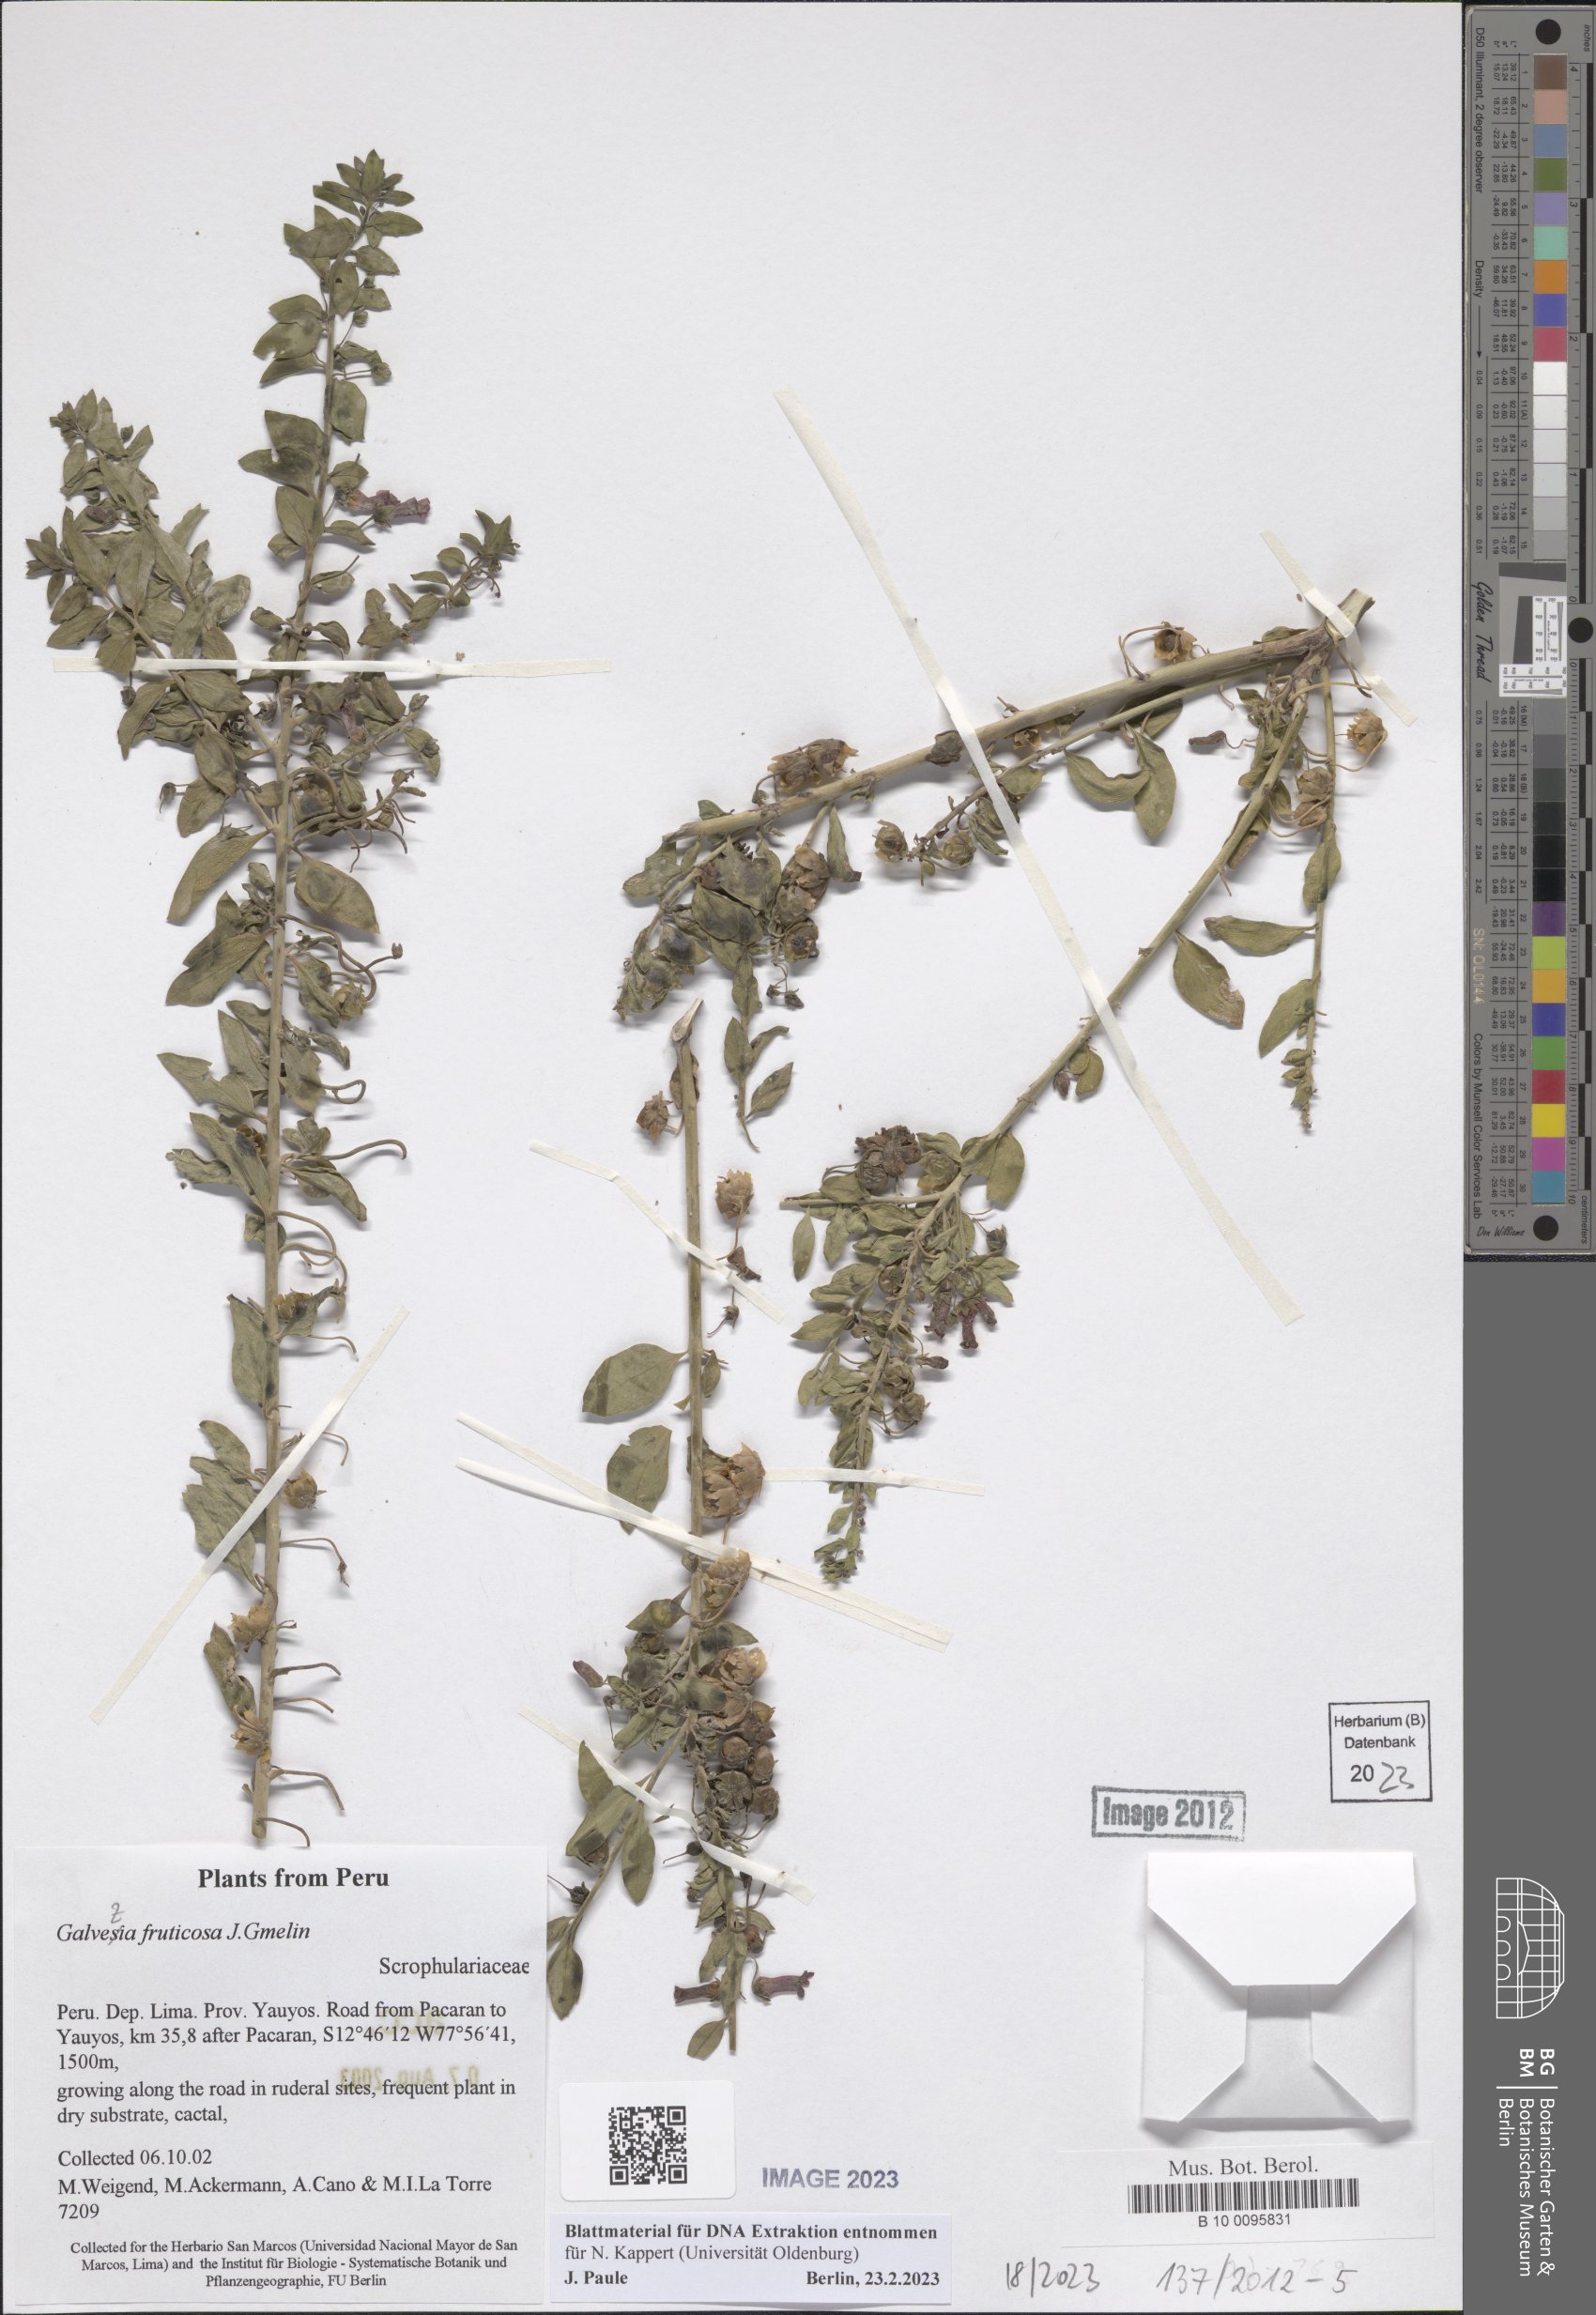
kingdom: Plantae
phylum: Tracheophyta
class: Magnoliopsida
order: Lamiales
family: Plantaginaceae
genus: Galvezia
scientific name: Galvezia fruticosa
